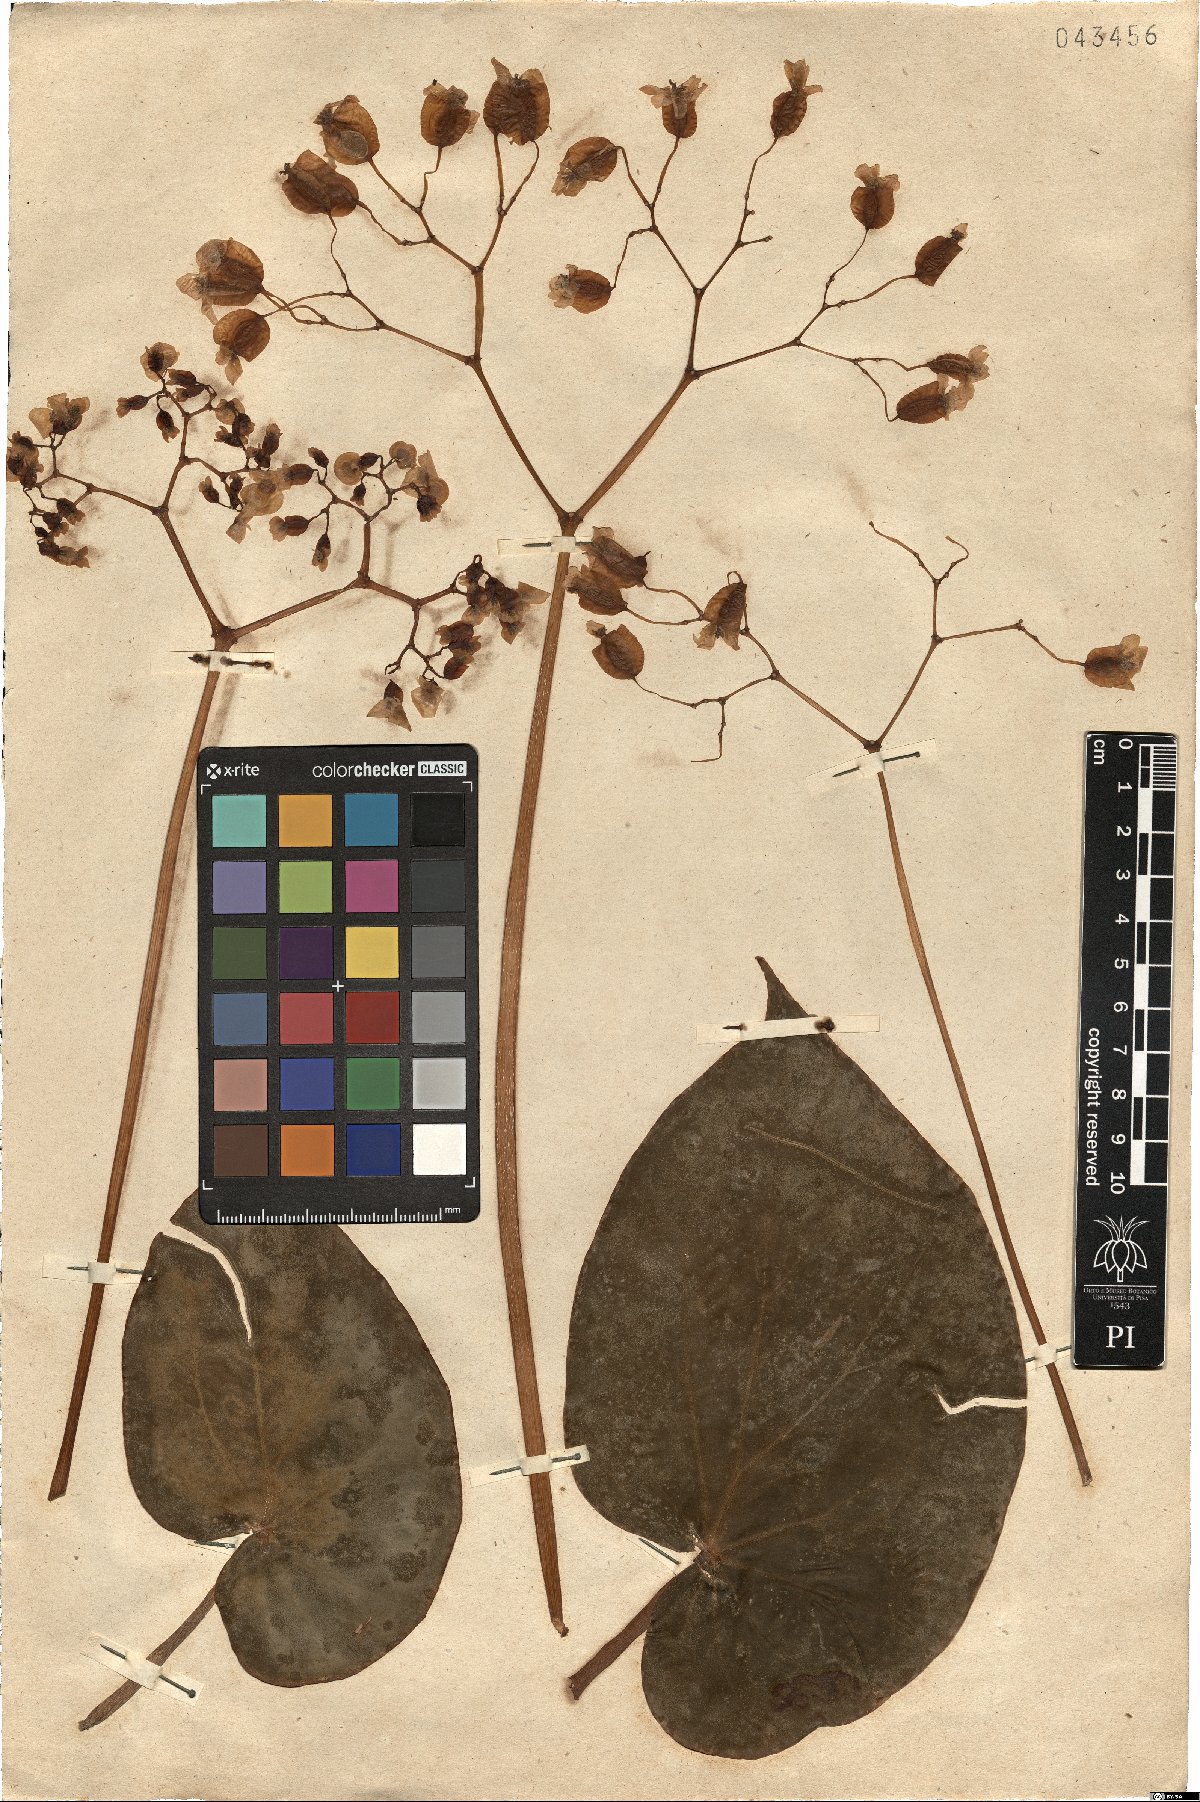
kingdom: Plantae
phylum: Tracheophyta
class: Magnoliopsida
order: Cucurbitales
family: Begoniaceae
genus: Begonia
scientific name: Begonia sanguinea
